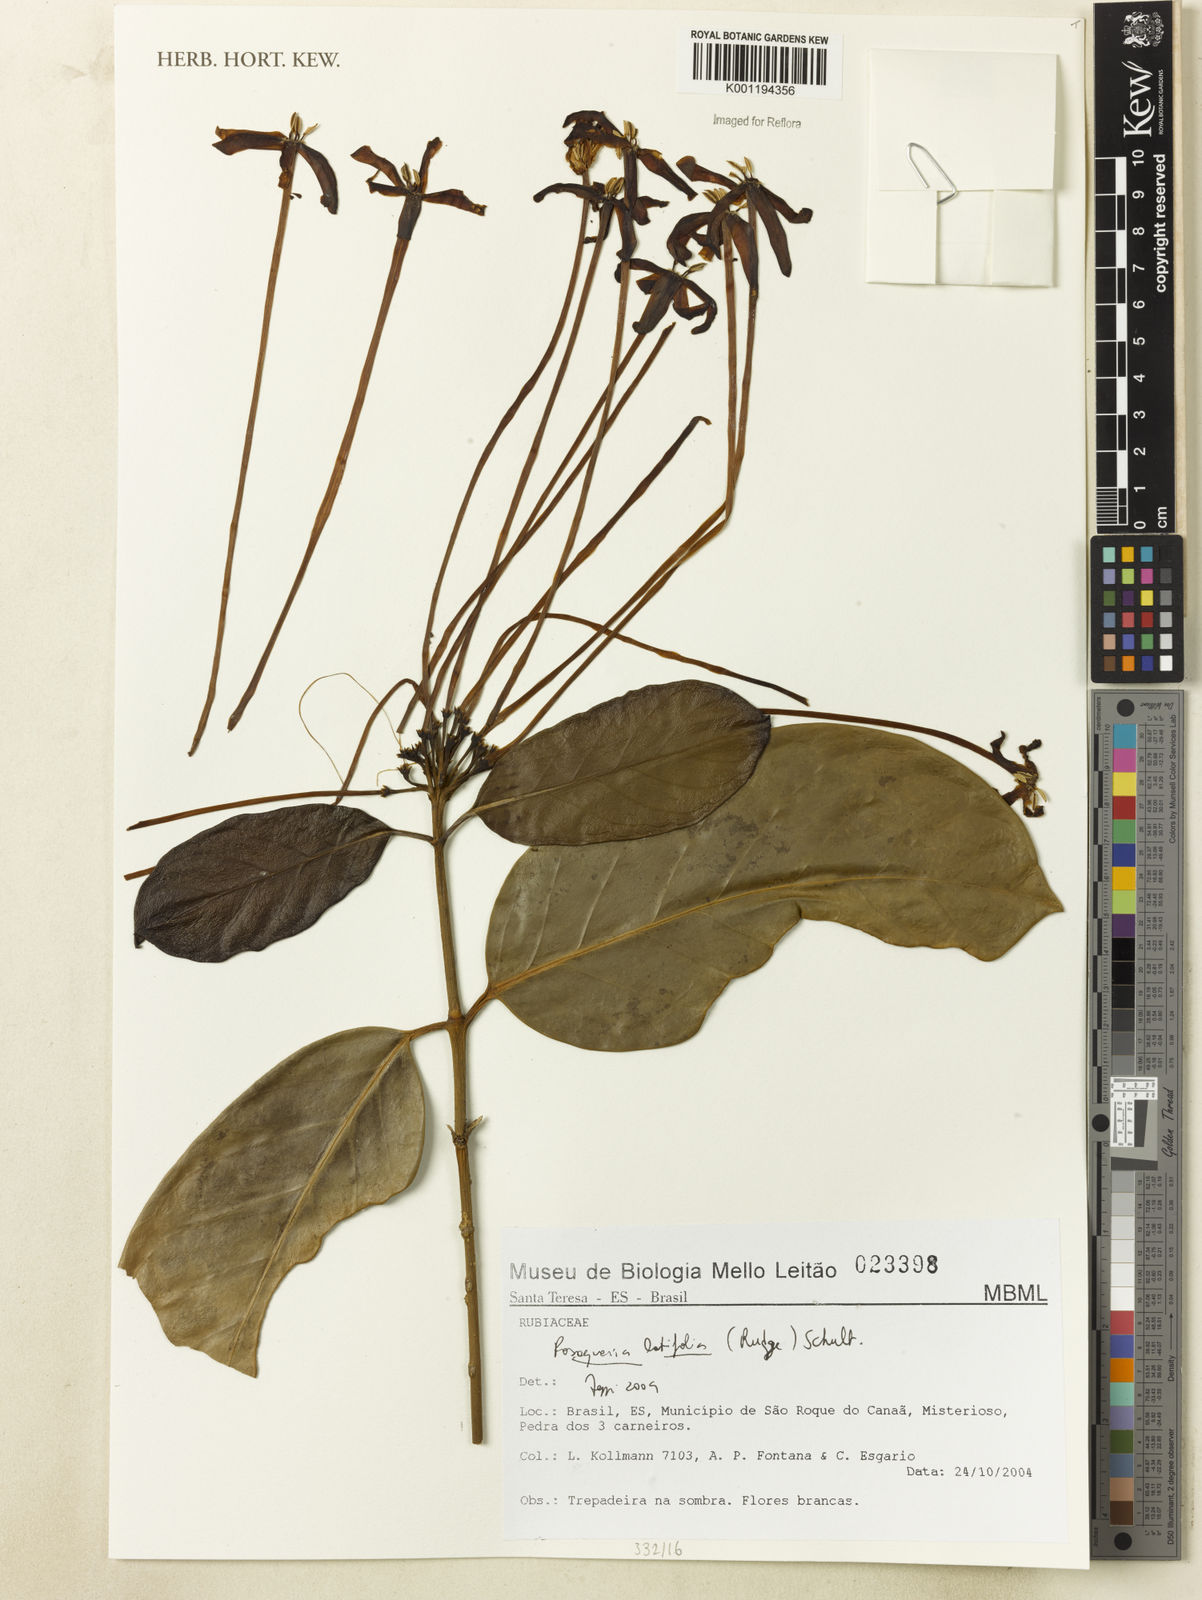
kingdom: Plantae
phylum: Tracheophyta
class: Magnoliopsida
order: Gentianales
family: Rubiaceae
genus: Posoqueria
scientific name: Posoqueria latifolia
